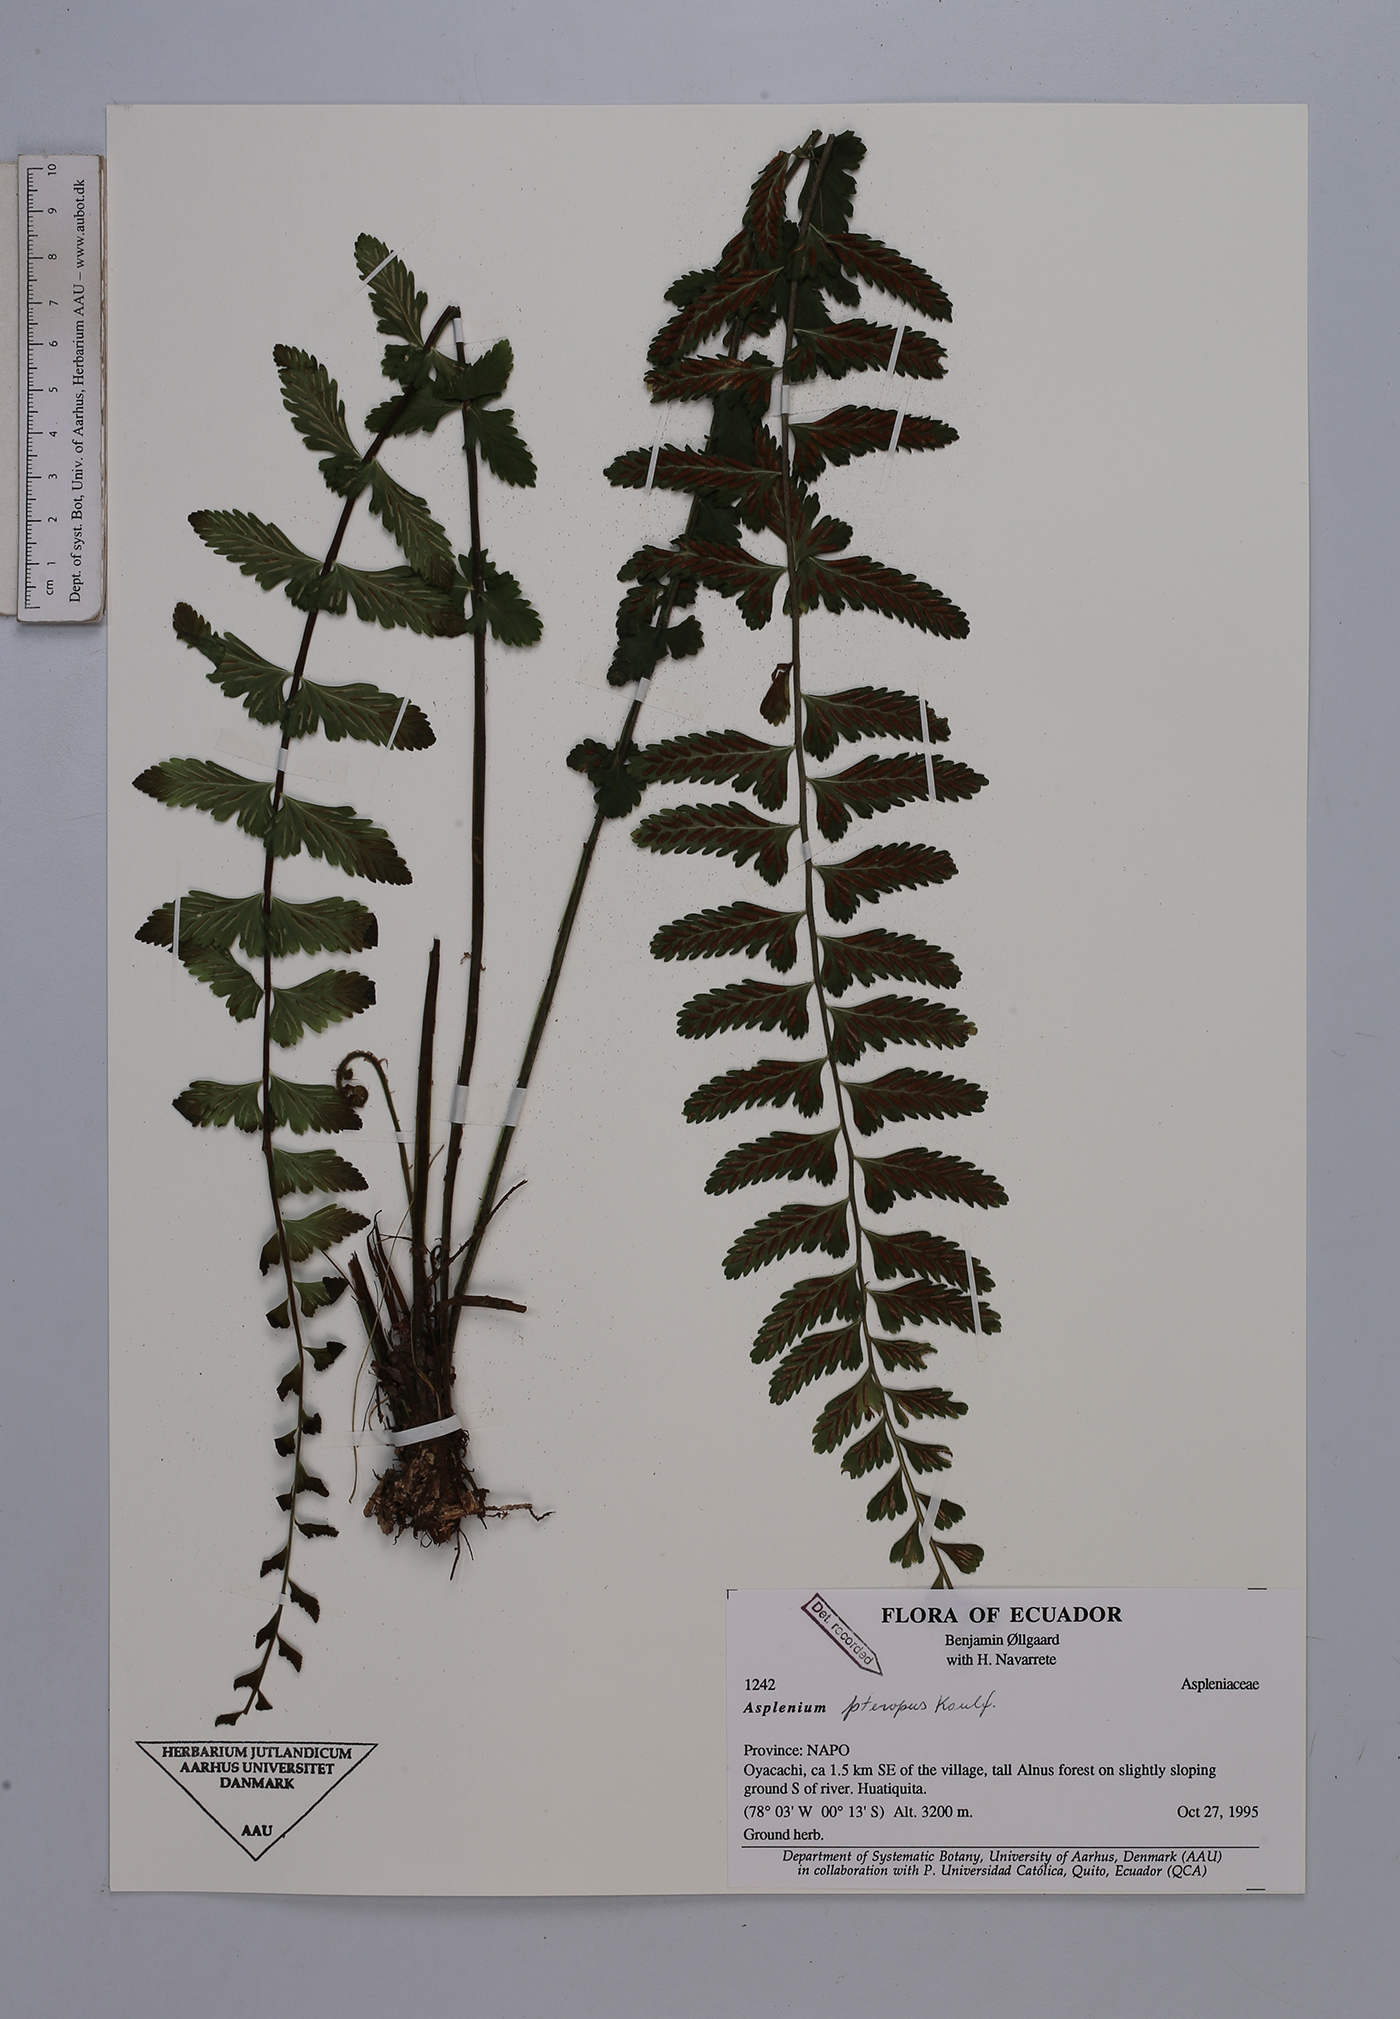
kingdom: Plantae
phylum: Tracheophyta
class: Polypodiopsida
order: Polypodiales
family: Aspleniaceae
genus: Asplenium
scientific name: Asplenium pteropus
